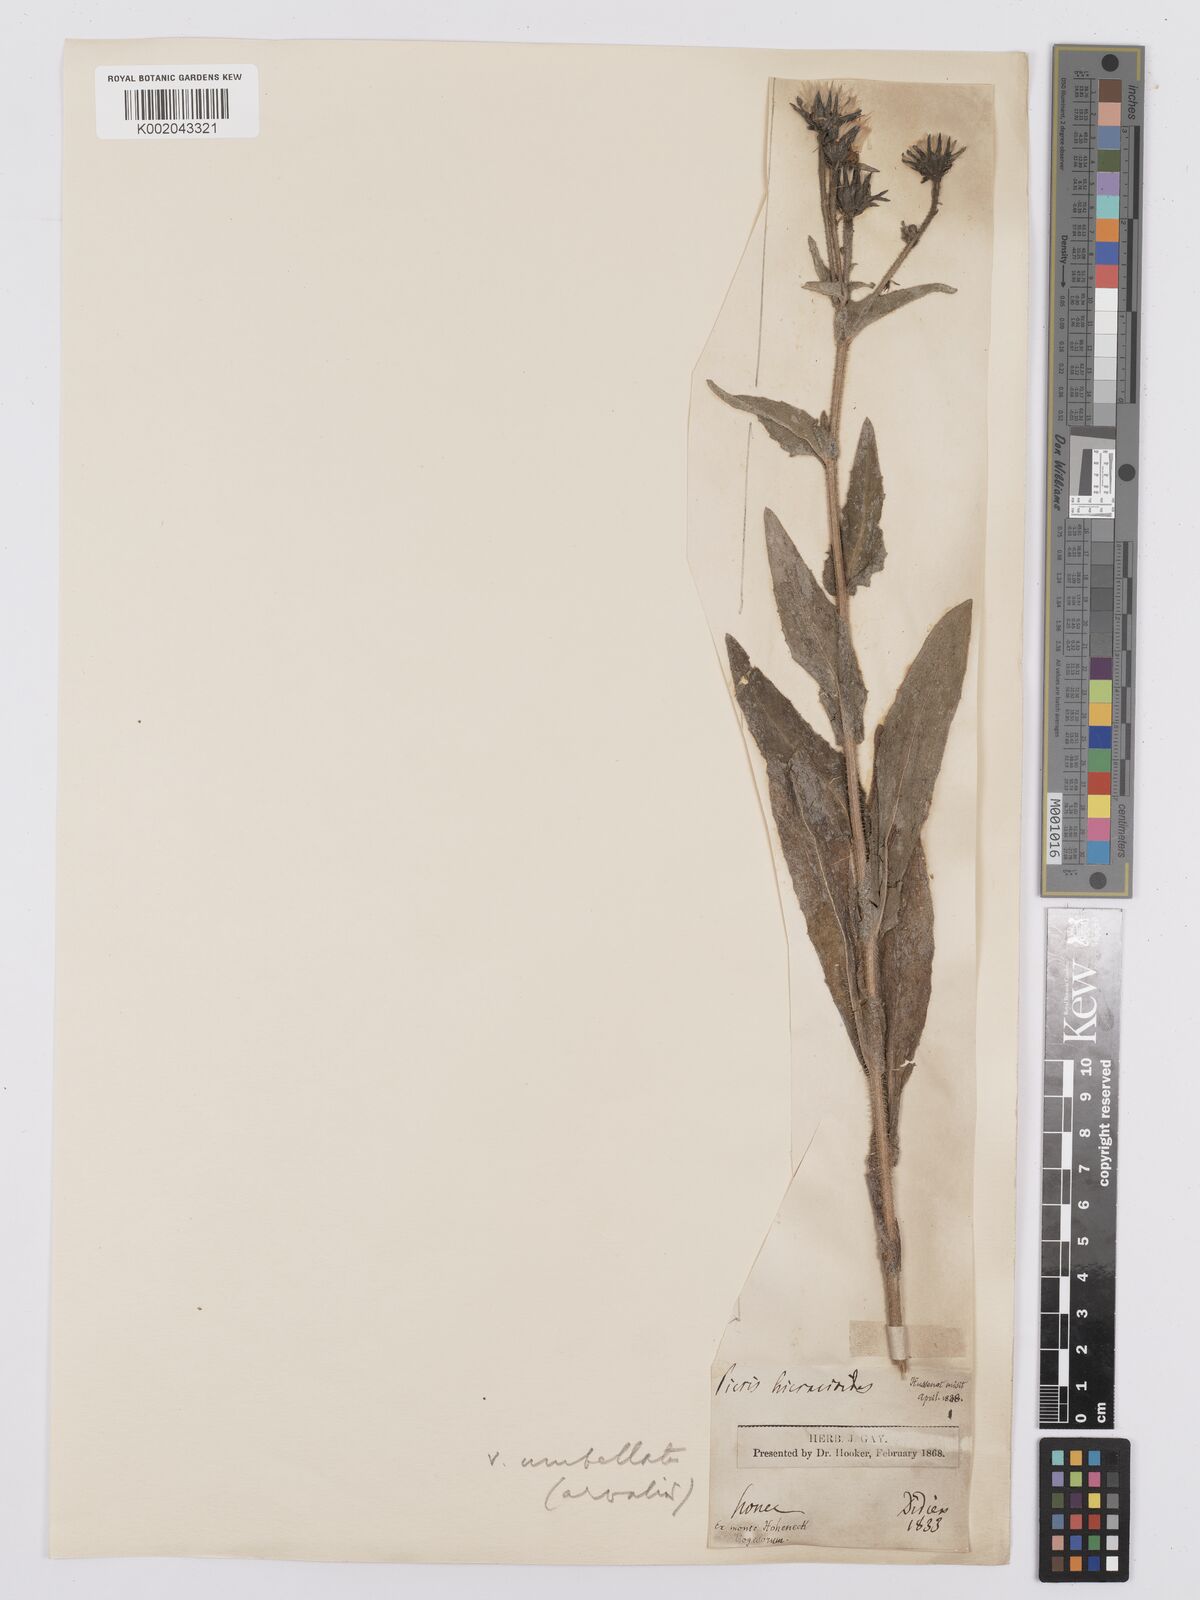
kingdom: Plantae
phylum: Tracheophyta
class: Magnoliopsida
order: Asterales
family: Asteraceae
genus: Picris
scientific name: Picris hieracioides
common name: Hawkweed oxtongue
